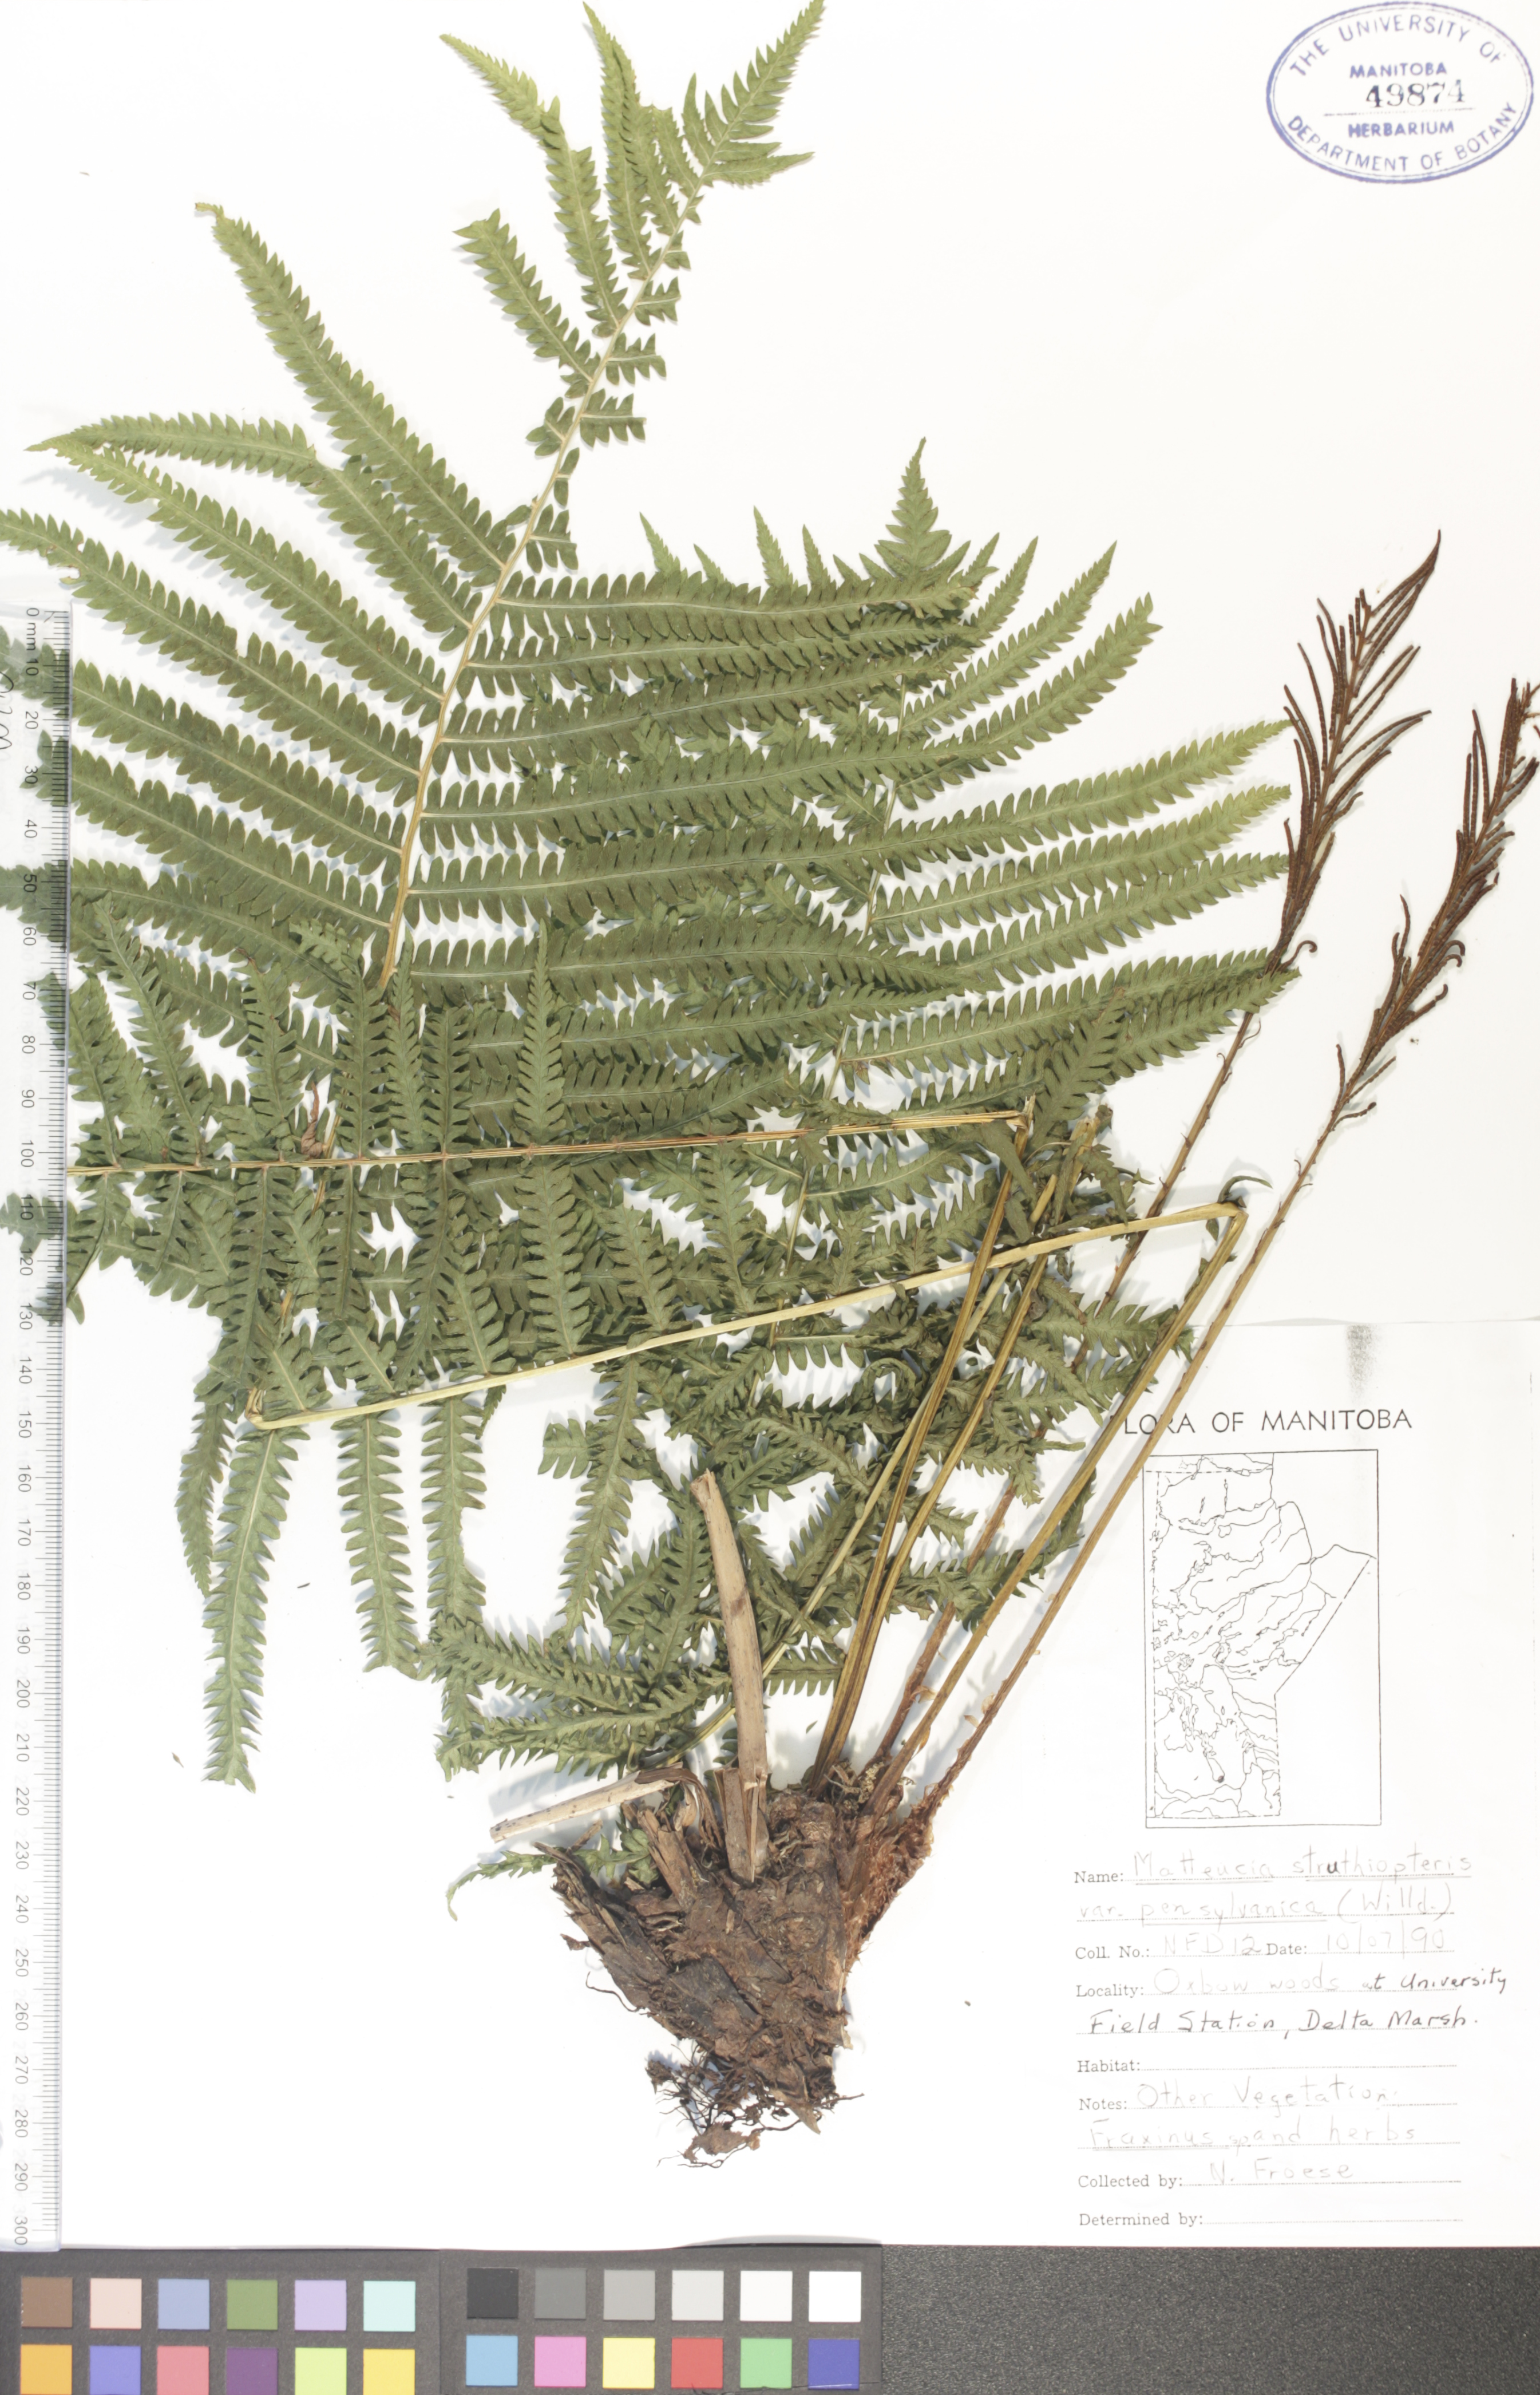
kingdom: Plantae
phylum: Tracheophyta
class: Polypodiopsida
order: Polypodiales
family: Onocleaceae
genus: Matteuccia
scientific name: Matteuccia pensylvanica
